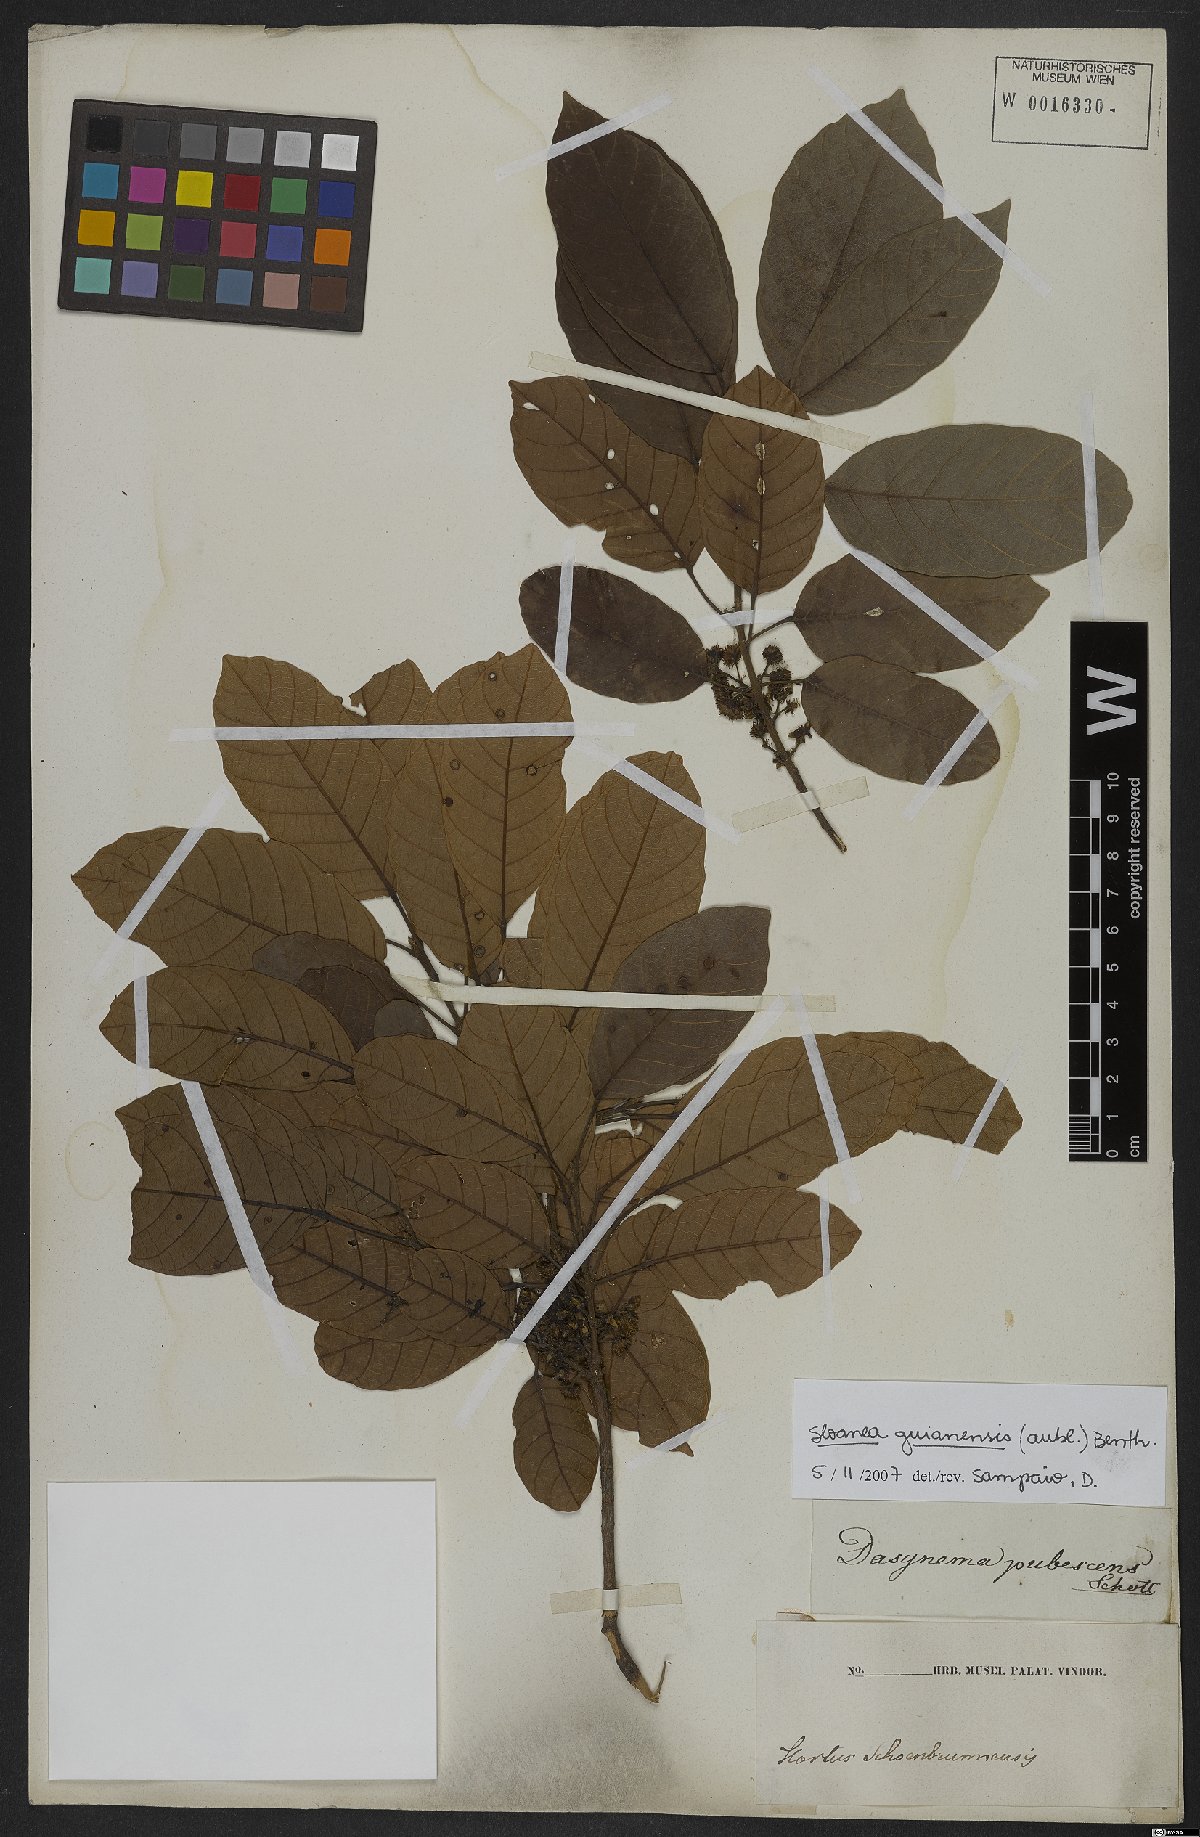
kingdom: Plantae
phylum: Tracheophyta
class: Magnoliopsida
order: Oxalidales
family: Elaeocarpaceae
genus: Sloanea
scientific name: Sloanea guianensis
